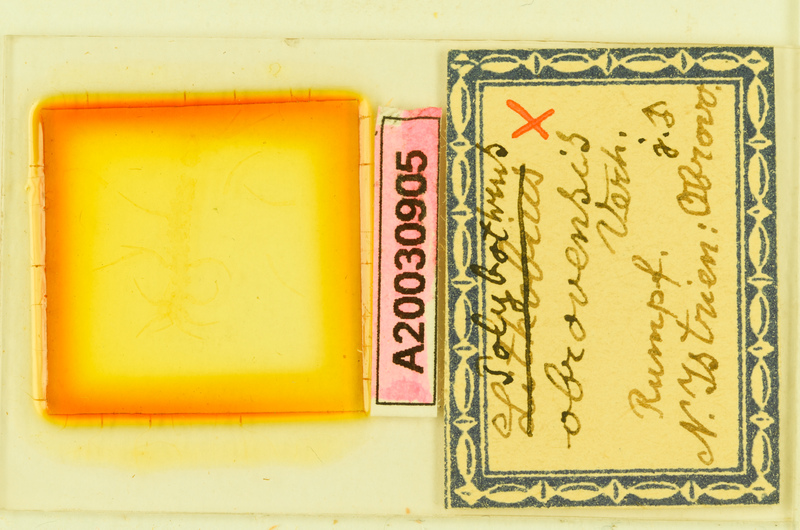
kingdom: Animalia
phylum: Arthropoda
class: Chilopoda
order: Lithobiomorpha
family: Lithobiidae
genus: Polybothrus
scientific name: Polybothrus obrovensis
